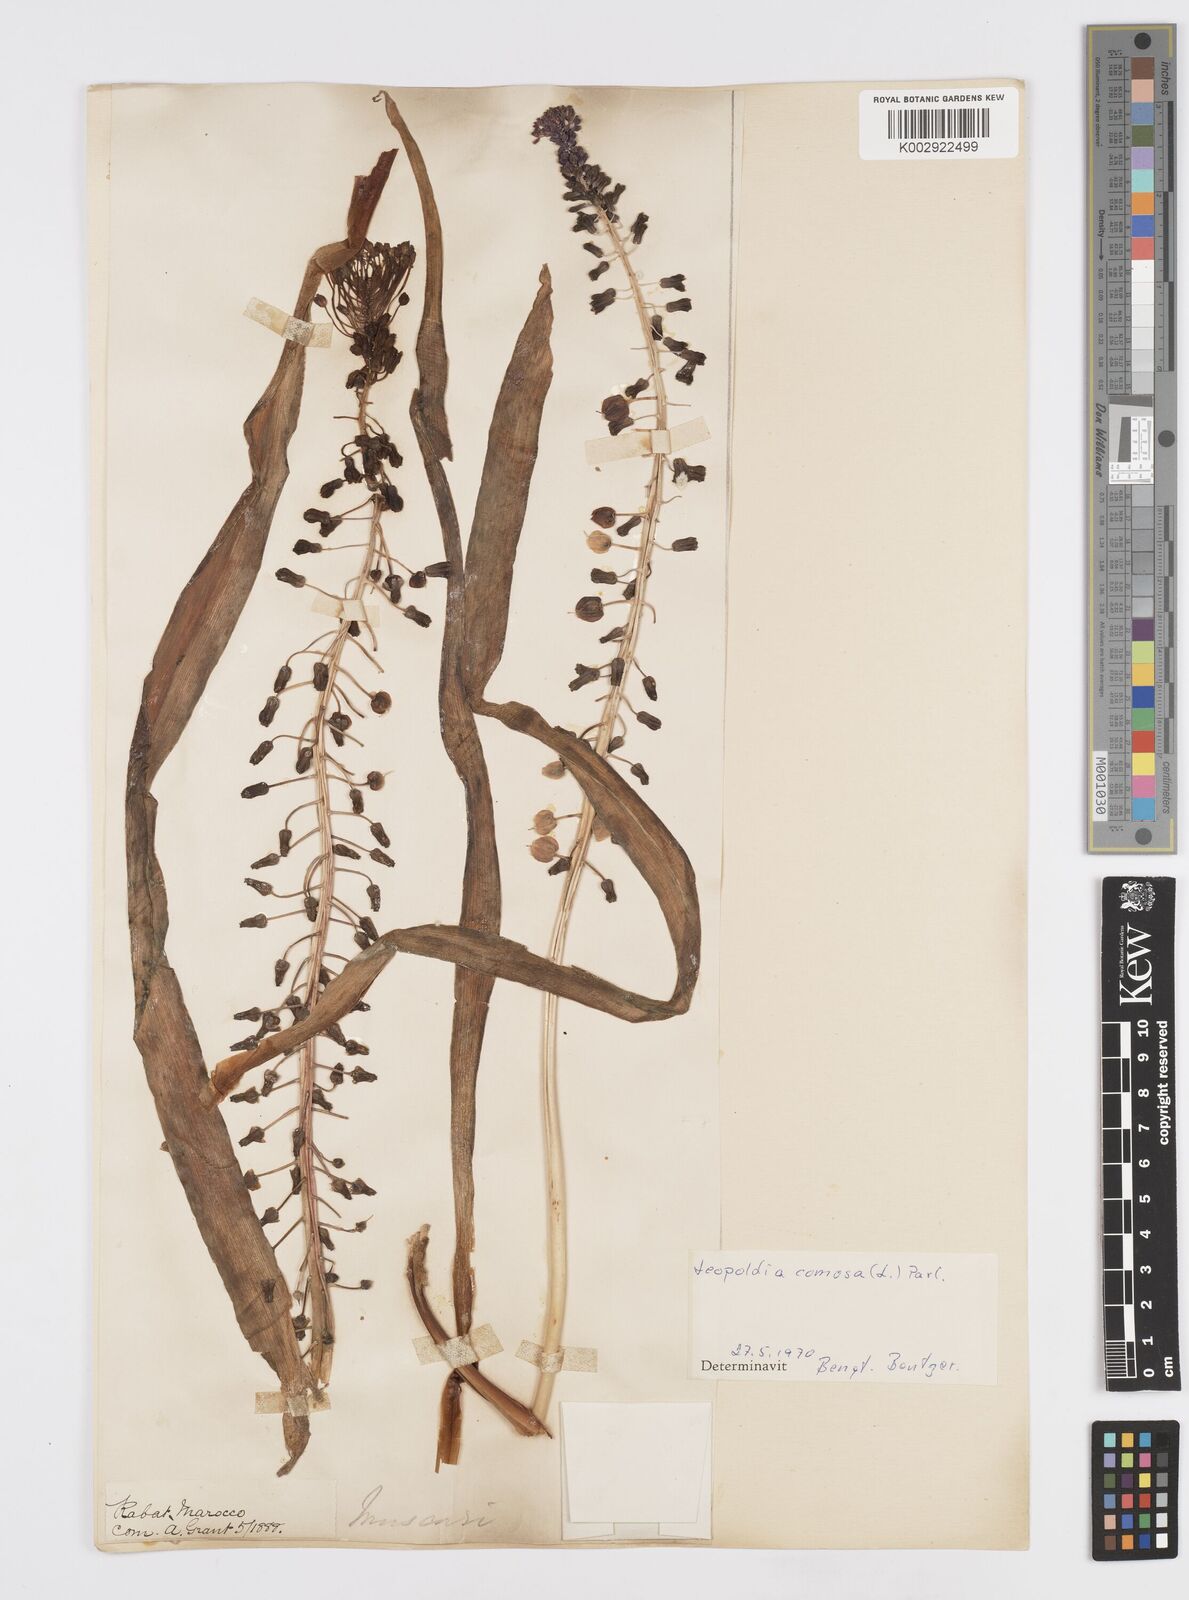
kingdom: Plantae
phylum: Tracheophyta
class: Liliopsida
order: Asparagales
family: Asparagaceae
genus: Muscari
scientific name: Muscari comosum
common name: Tassel hyacinth
